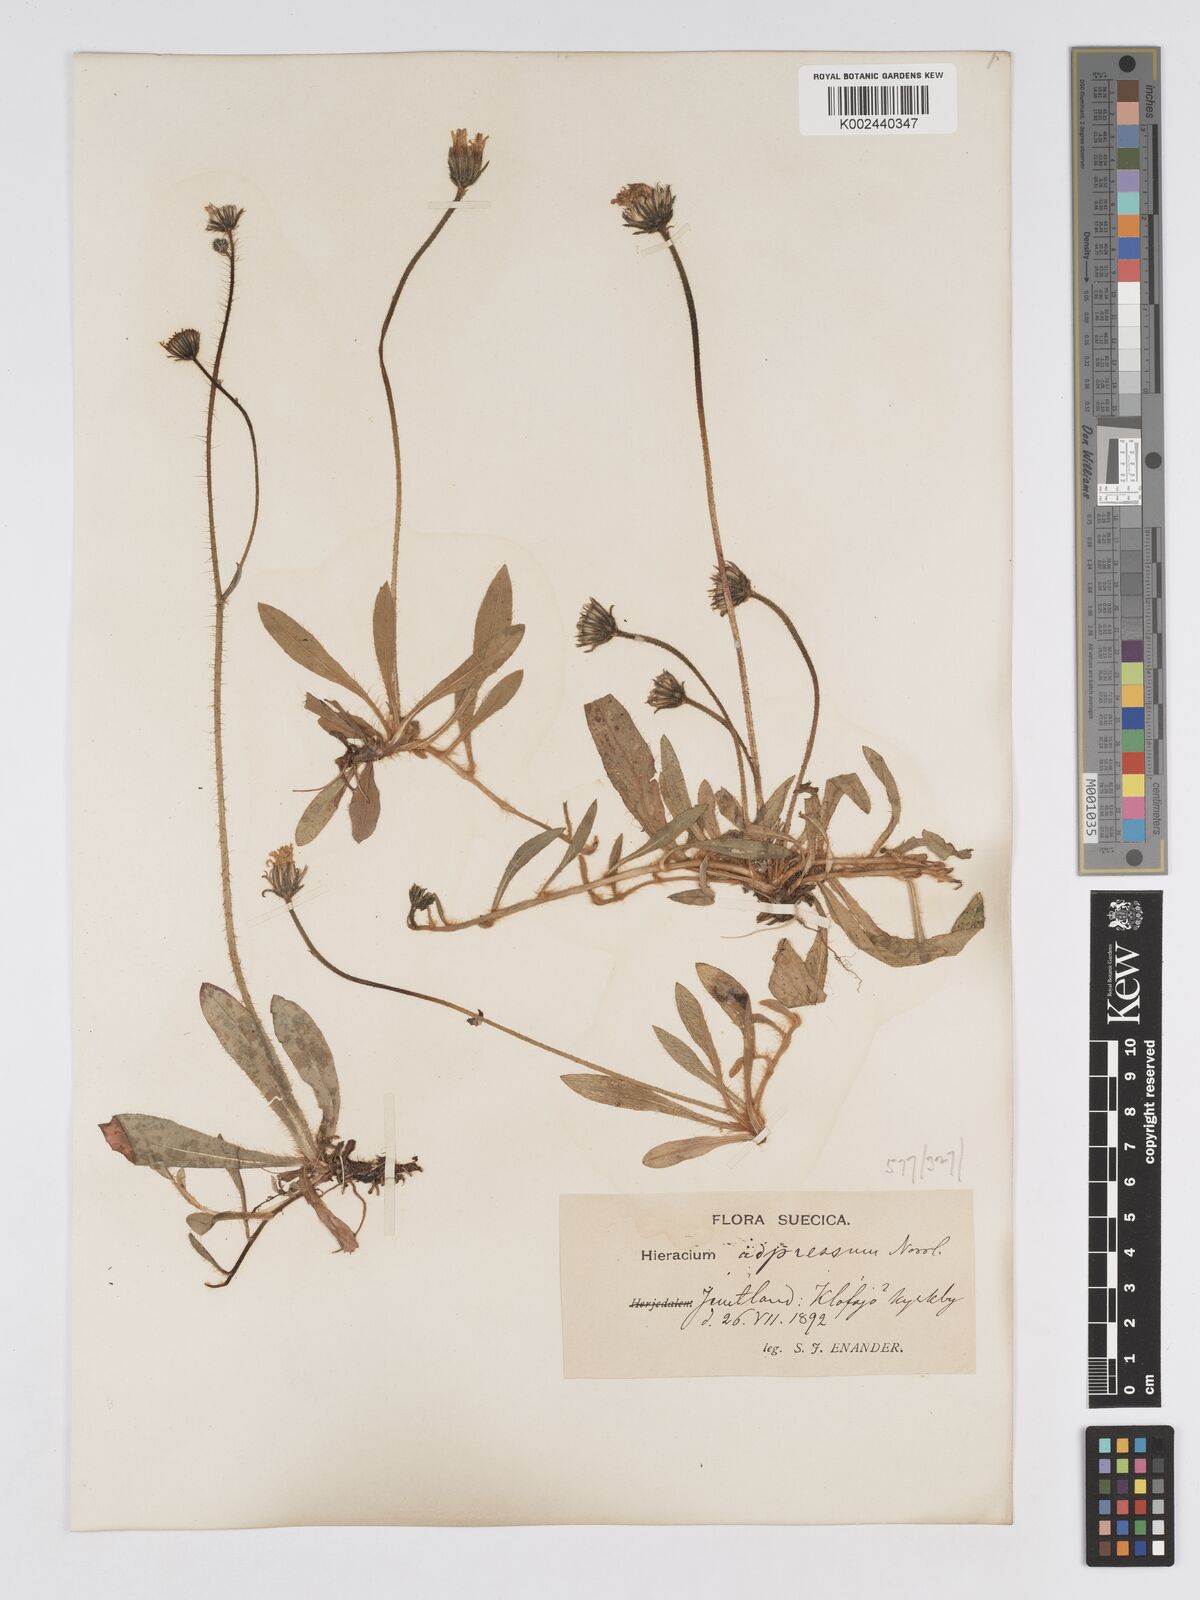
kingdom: Plantae
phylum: Tracheophyta
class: Magnoliopsida
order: Asterales
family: Asteraceae
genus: Pilosella
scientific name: Pilosella officinarum
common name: Mouse-ear hawkweed
